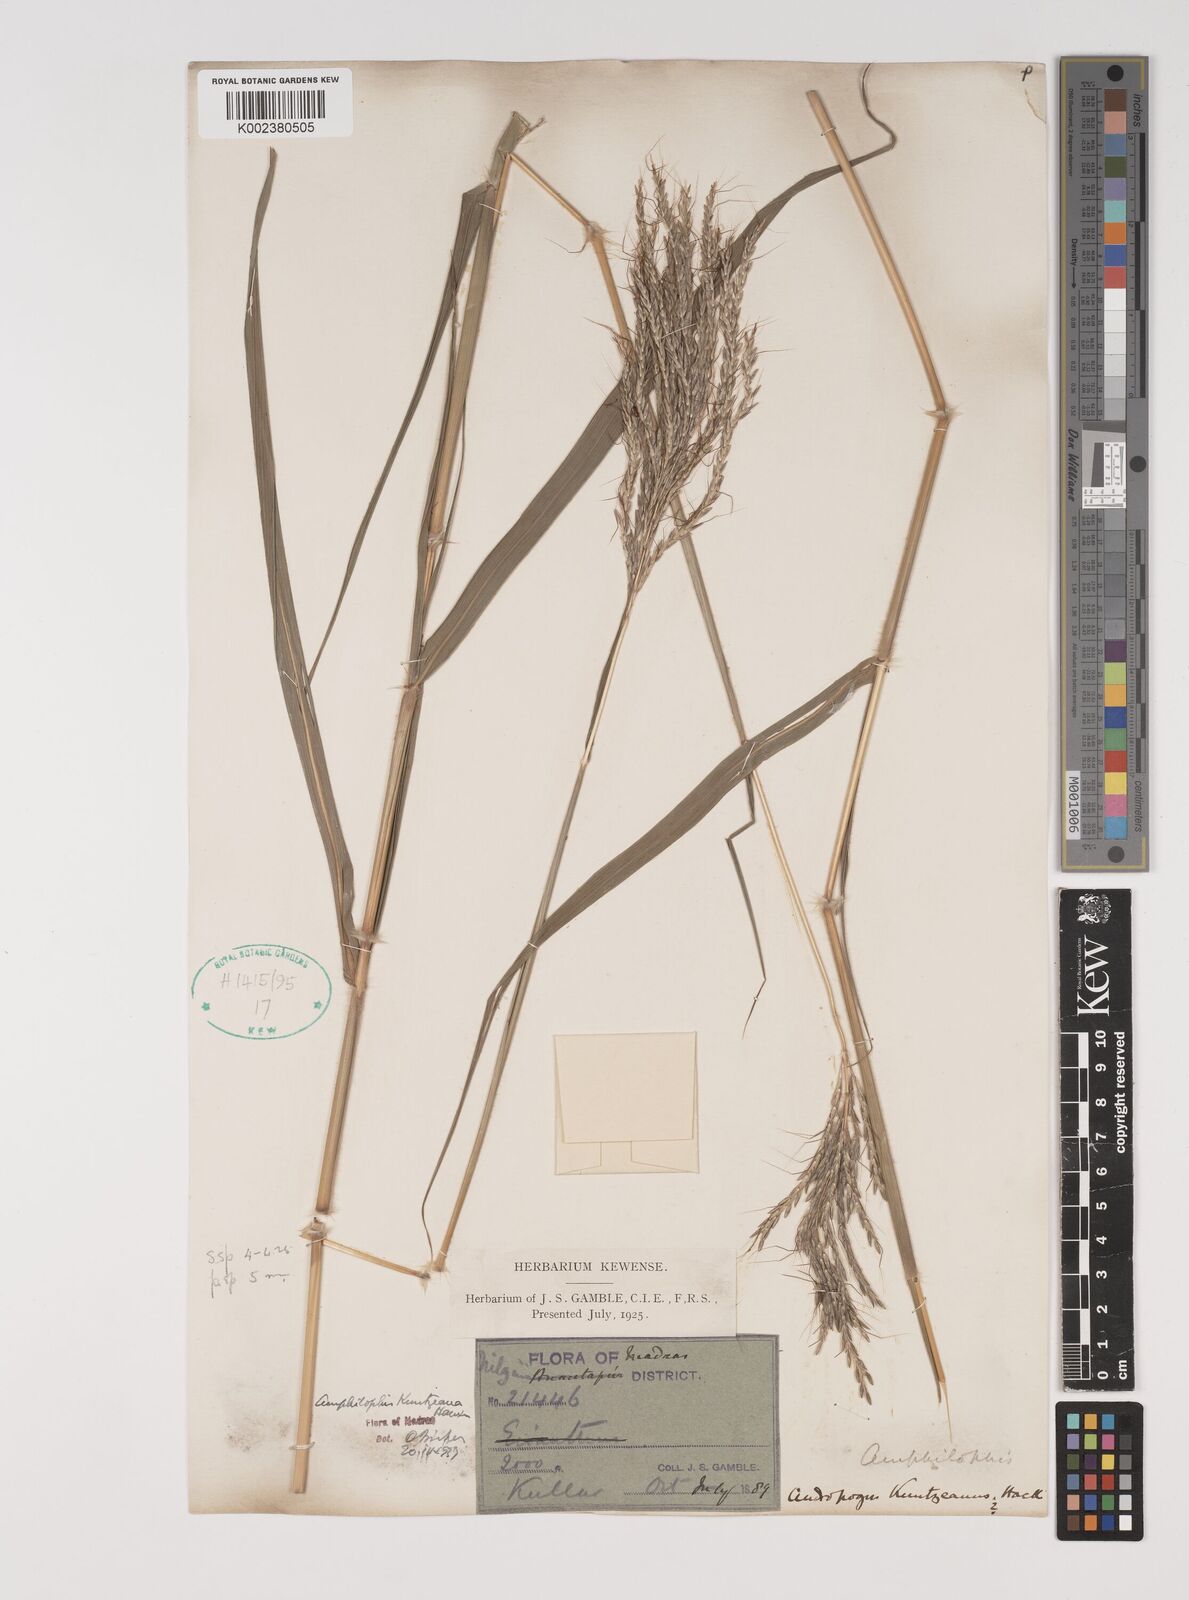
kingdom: Plantae
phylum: Tracheophyta
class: Liliopsida
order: Poales
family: Poaceae
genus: Bothriochloa
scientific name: Bothriochloa kuntzeana
